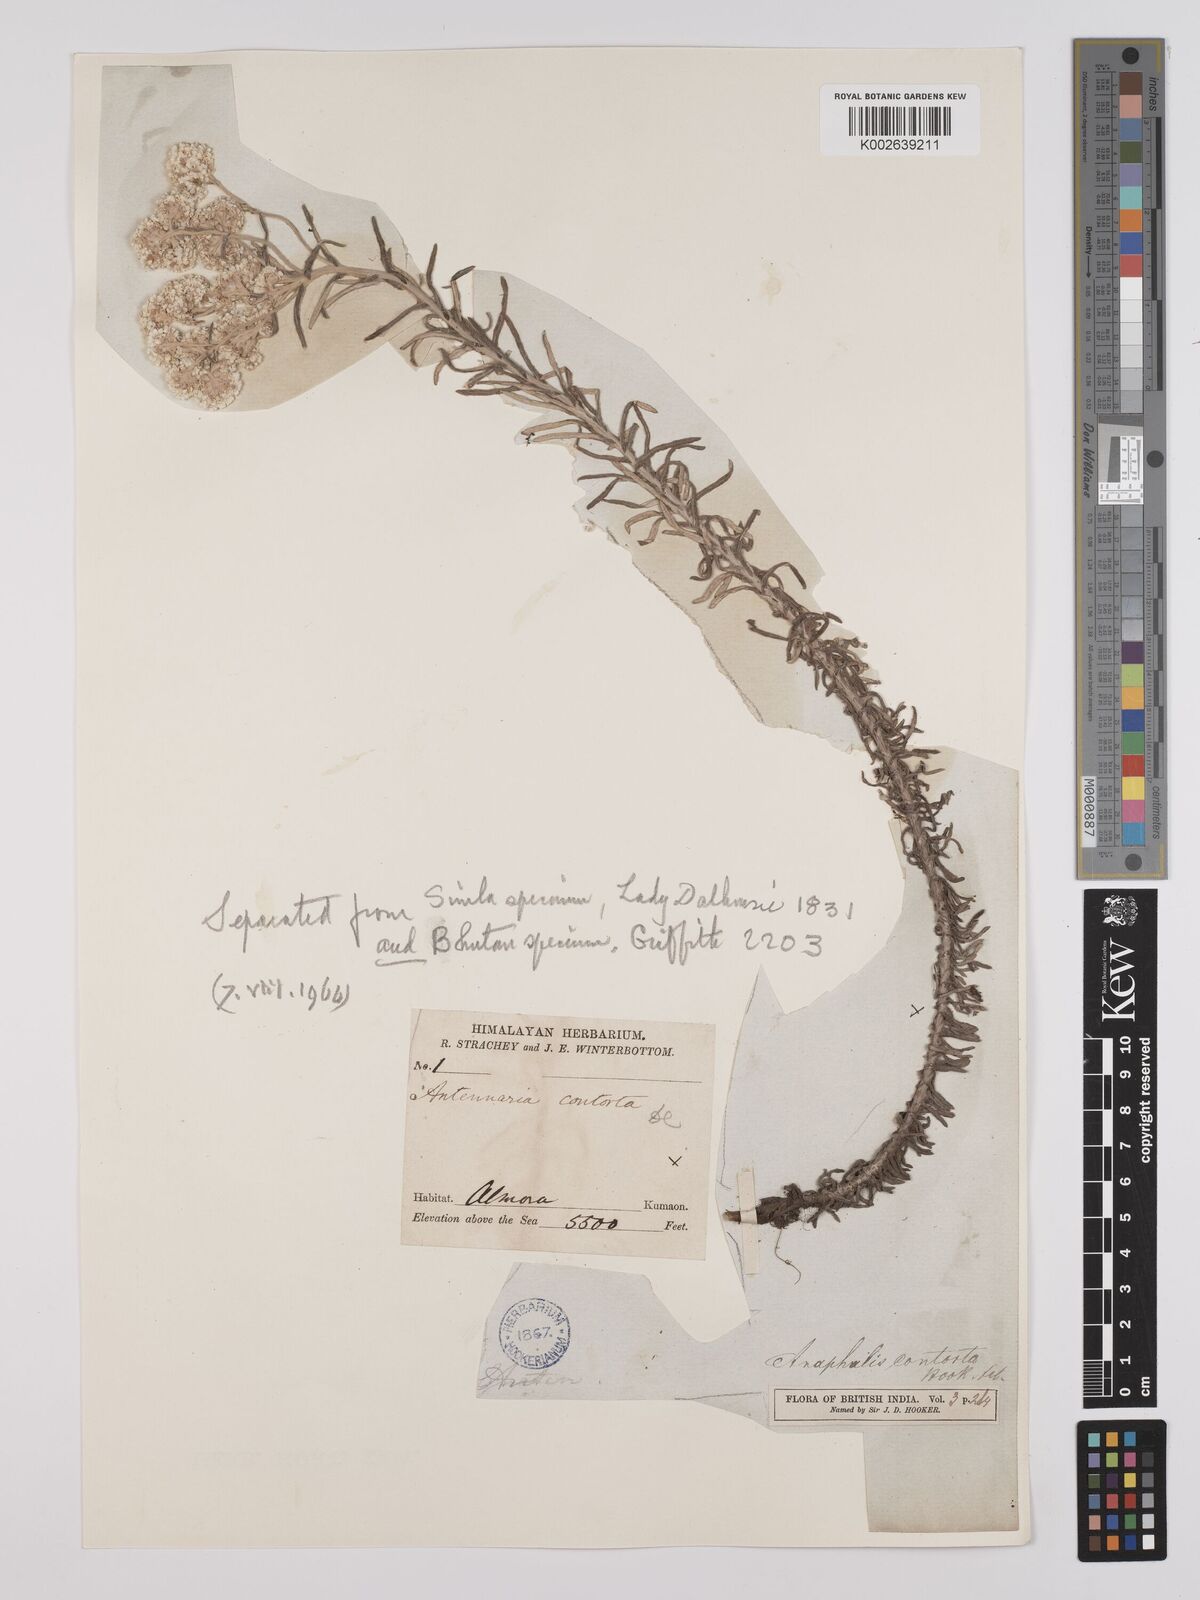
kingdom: Plantae
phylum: Tracheophyta
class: Magnoliopsida
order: Asterales
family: Asteraceae
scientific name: Asteraceae
